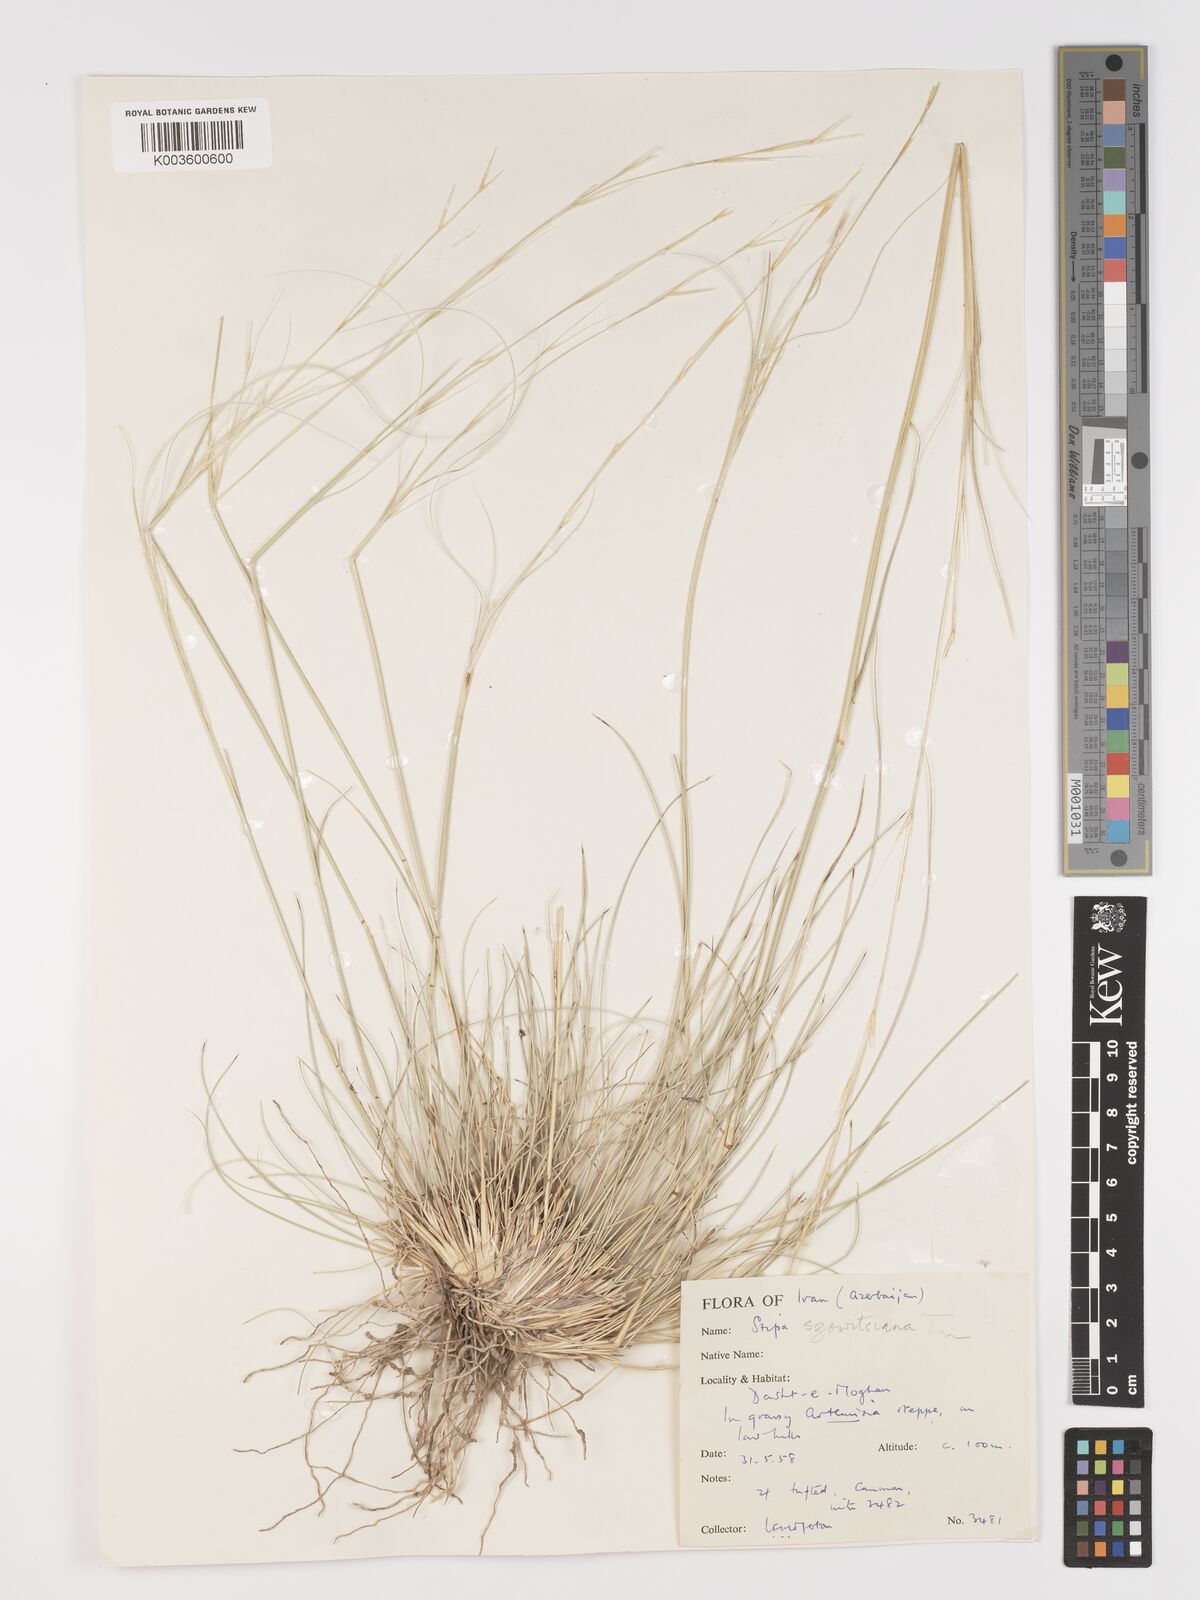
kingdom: Plantae
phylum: Tracheophyta
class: Liliopsida
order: Poales
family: Poaceae
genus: Stipa
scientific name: Stipa barbata
